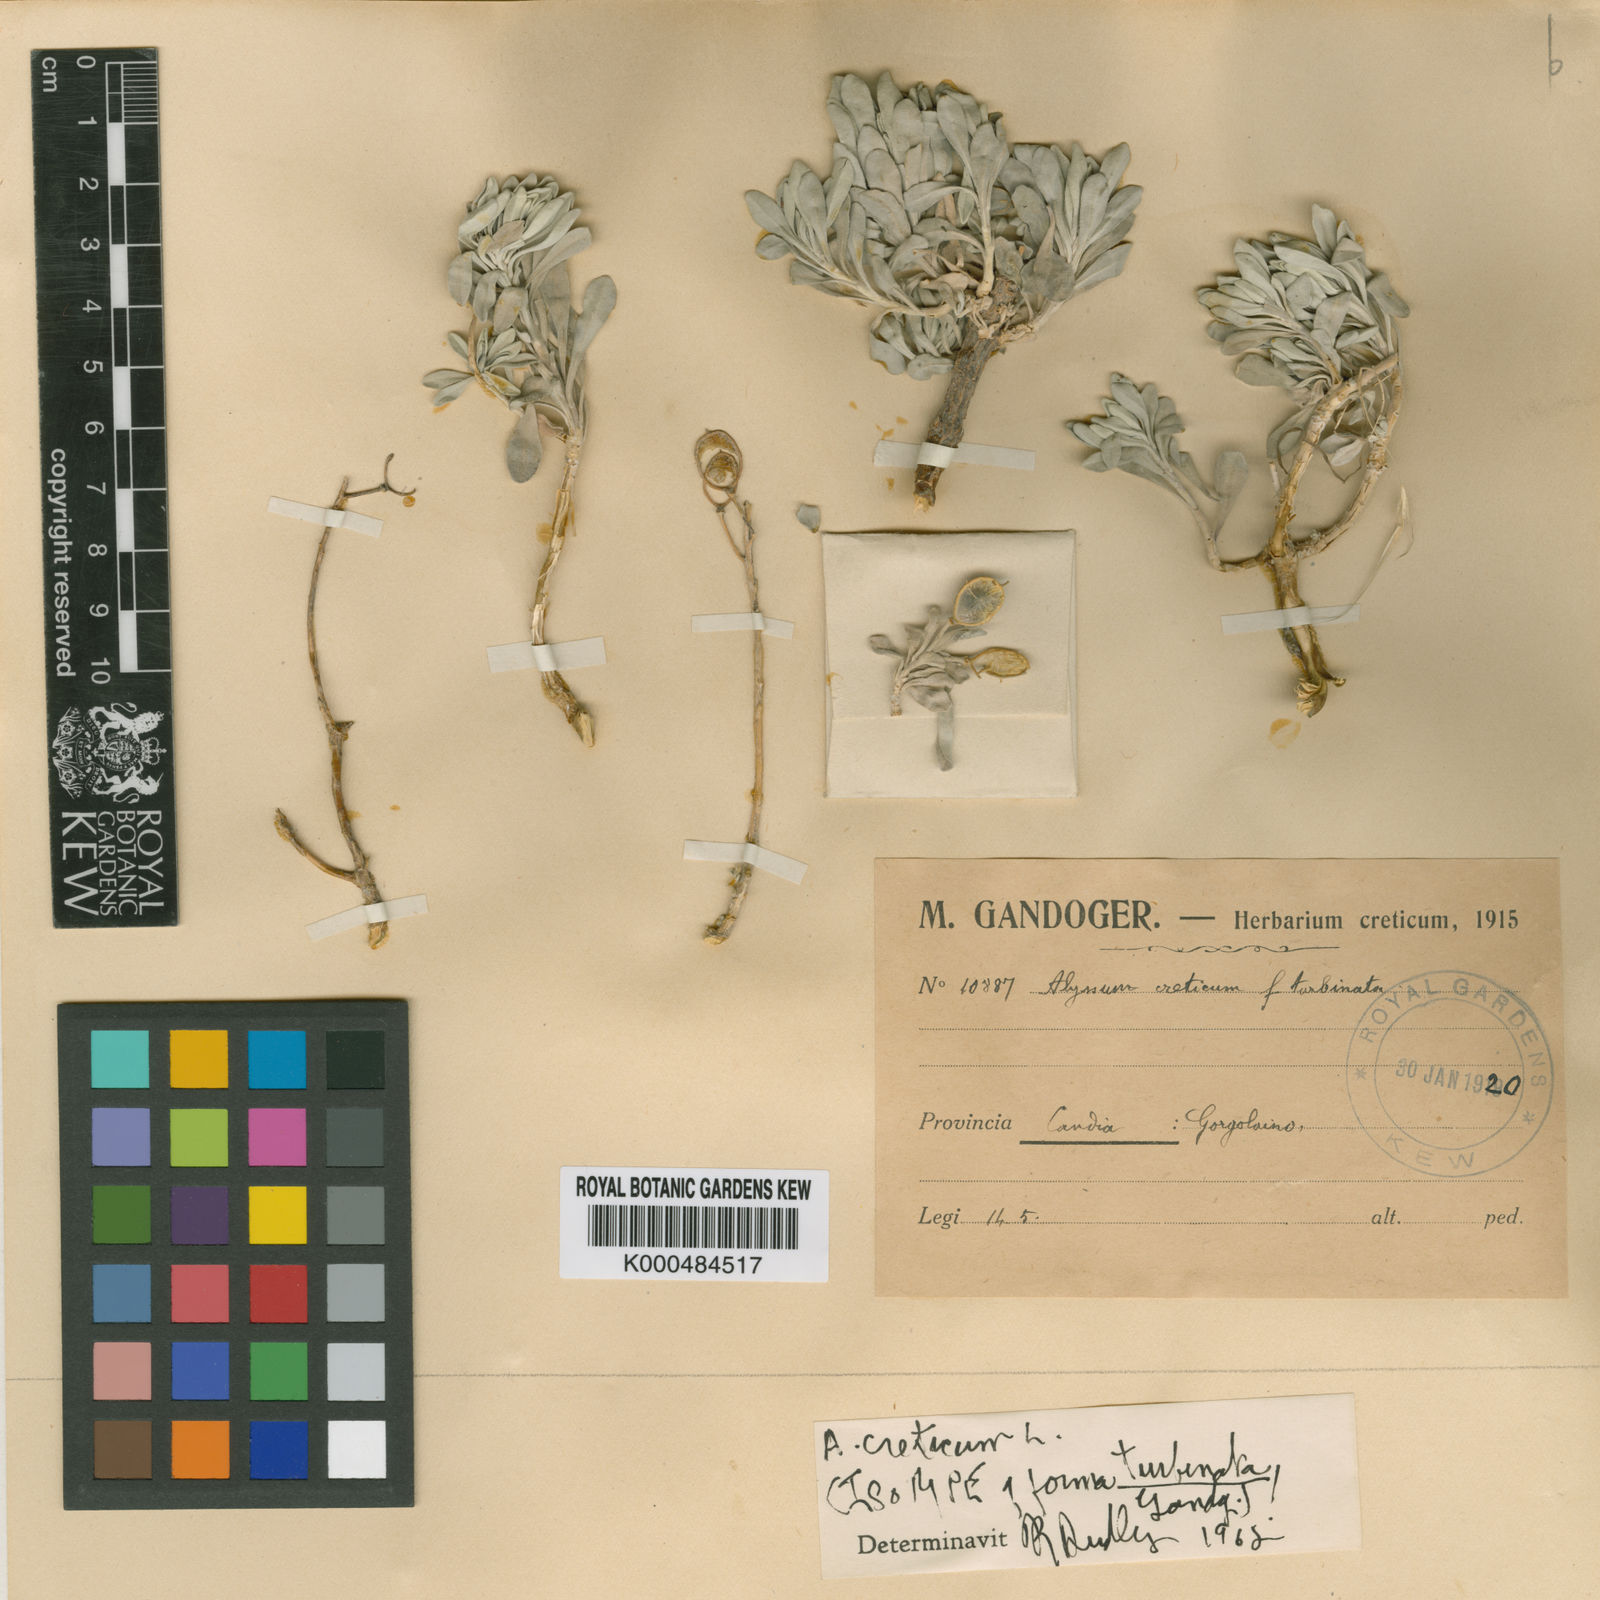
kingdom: Plantae
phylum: Tracheophyta
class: Magnoliopsida
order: Brassicales
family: Brassicaceae
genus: Lutzia
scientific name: Lutzia cretica
